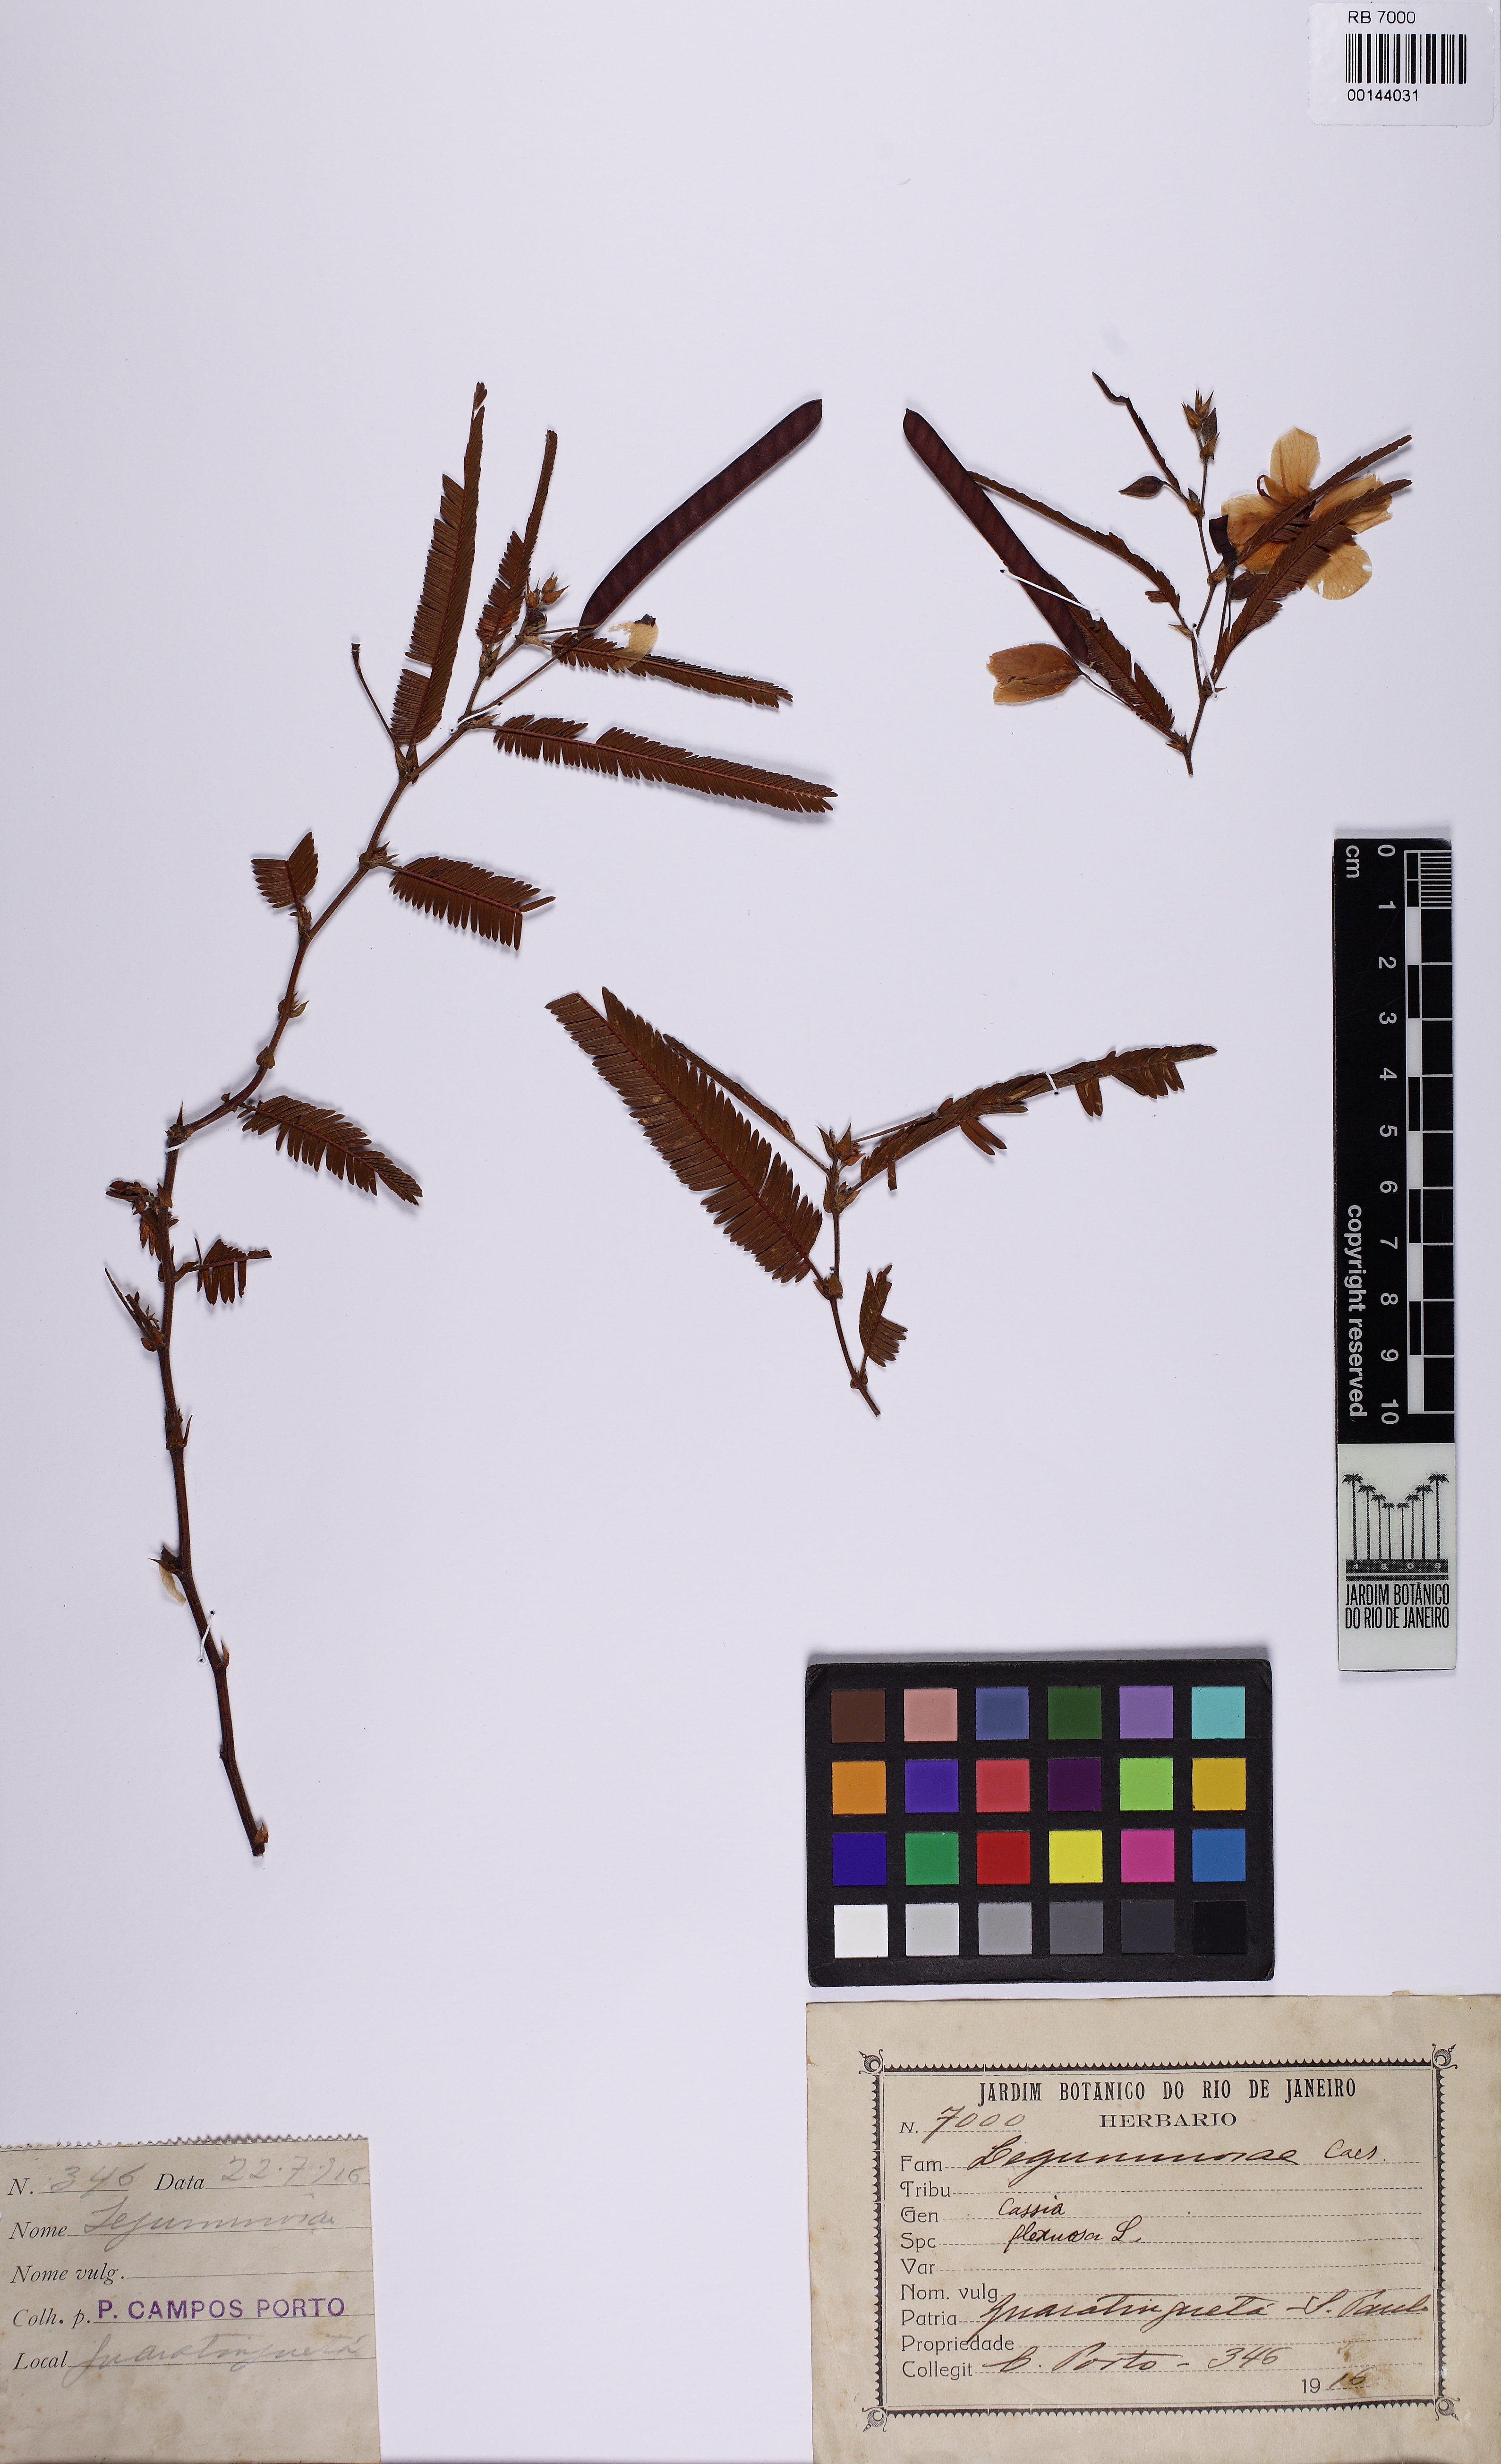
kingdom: Plantae
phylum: Tracheophyta
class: Magnoliopsida
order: Fabales
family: Fabaceae
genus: Chamaecrista
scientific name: Chamaecrista flexuosa
